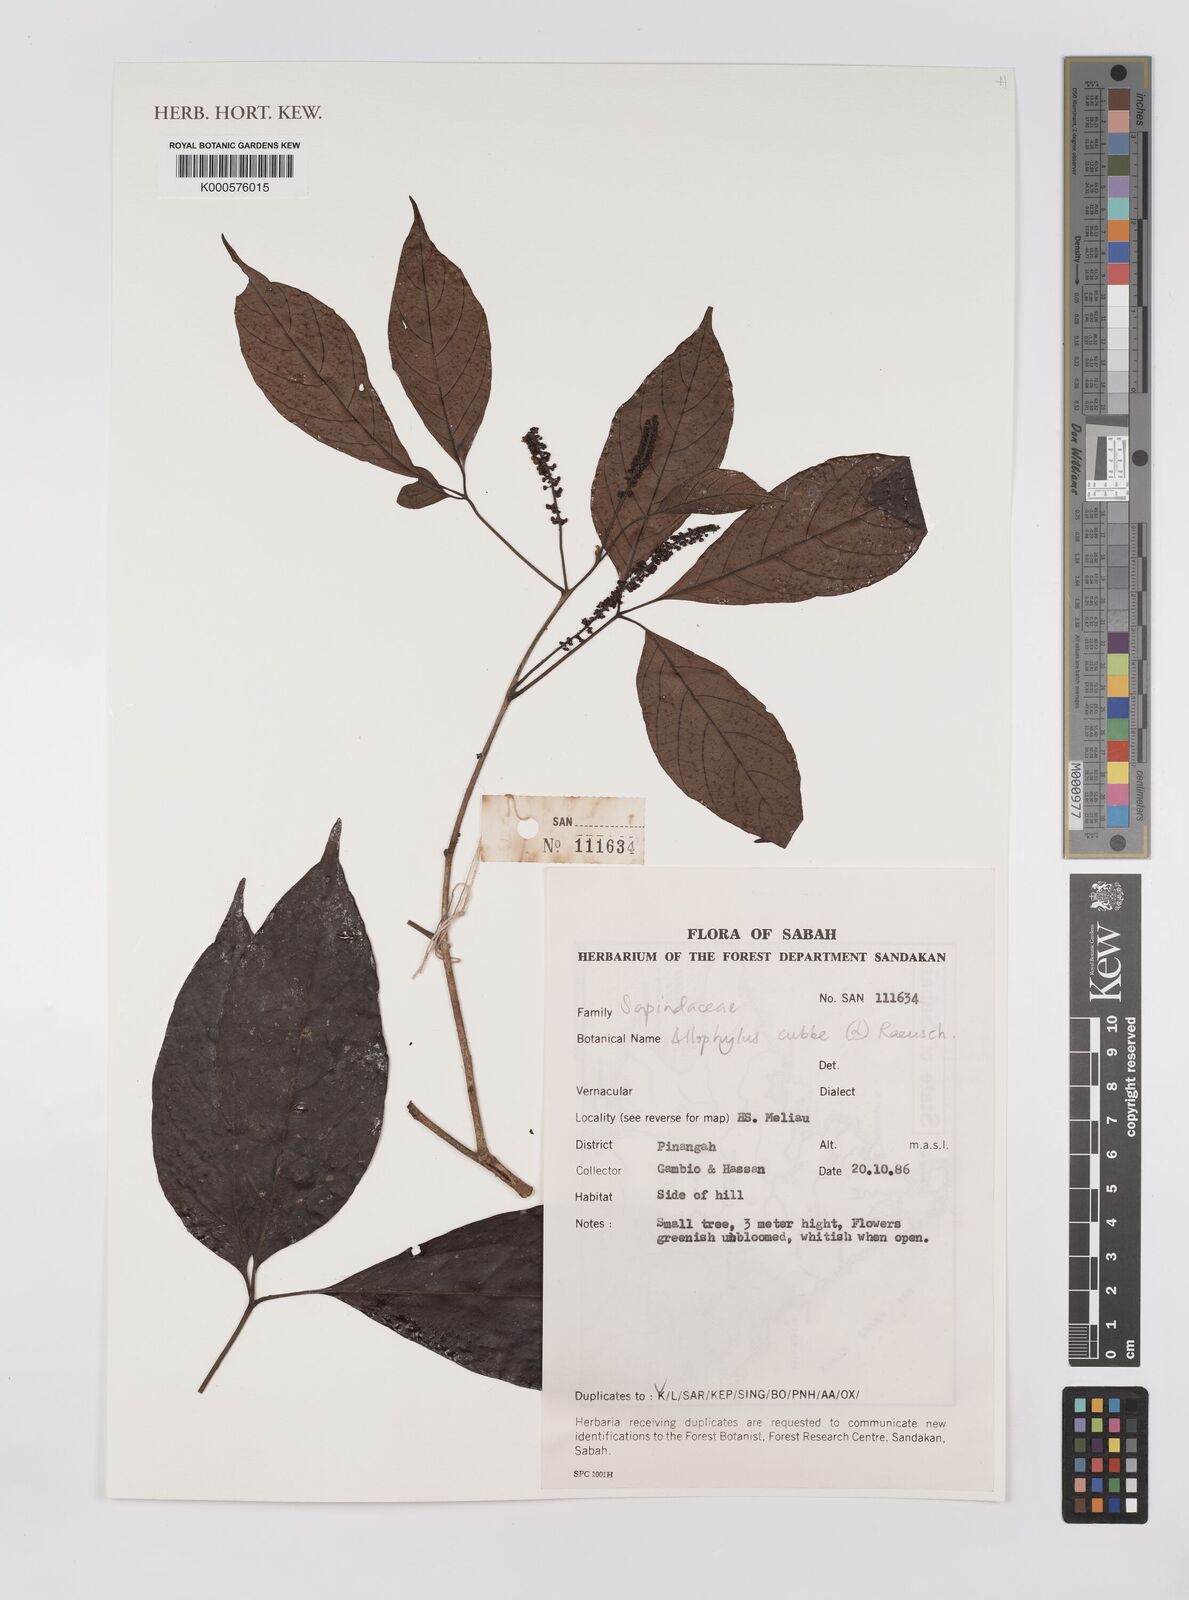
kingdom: Plantae
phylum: Tracheophyta
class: Magnoliopsida
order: Sapindales
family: Sapindaceae
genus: Allophylus
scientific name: Allophylus
